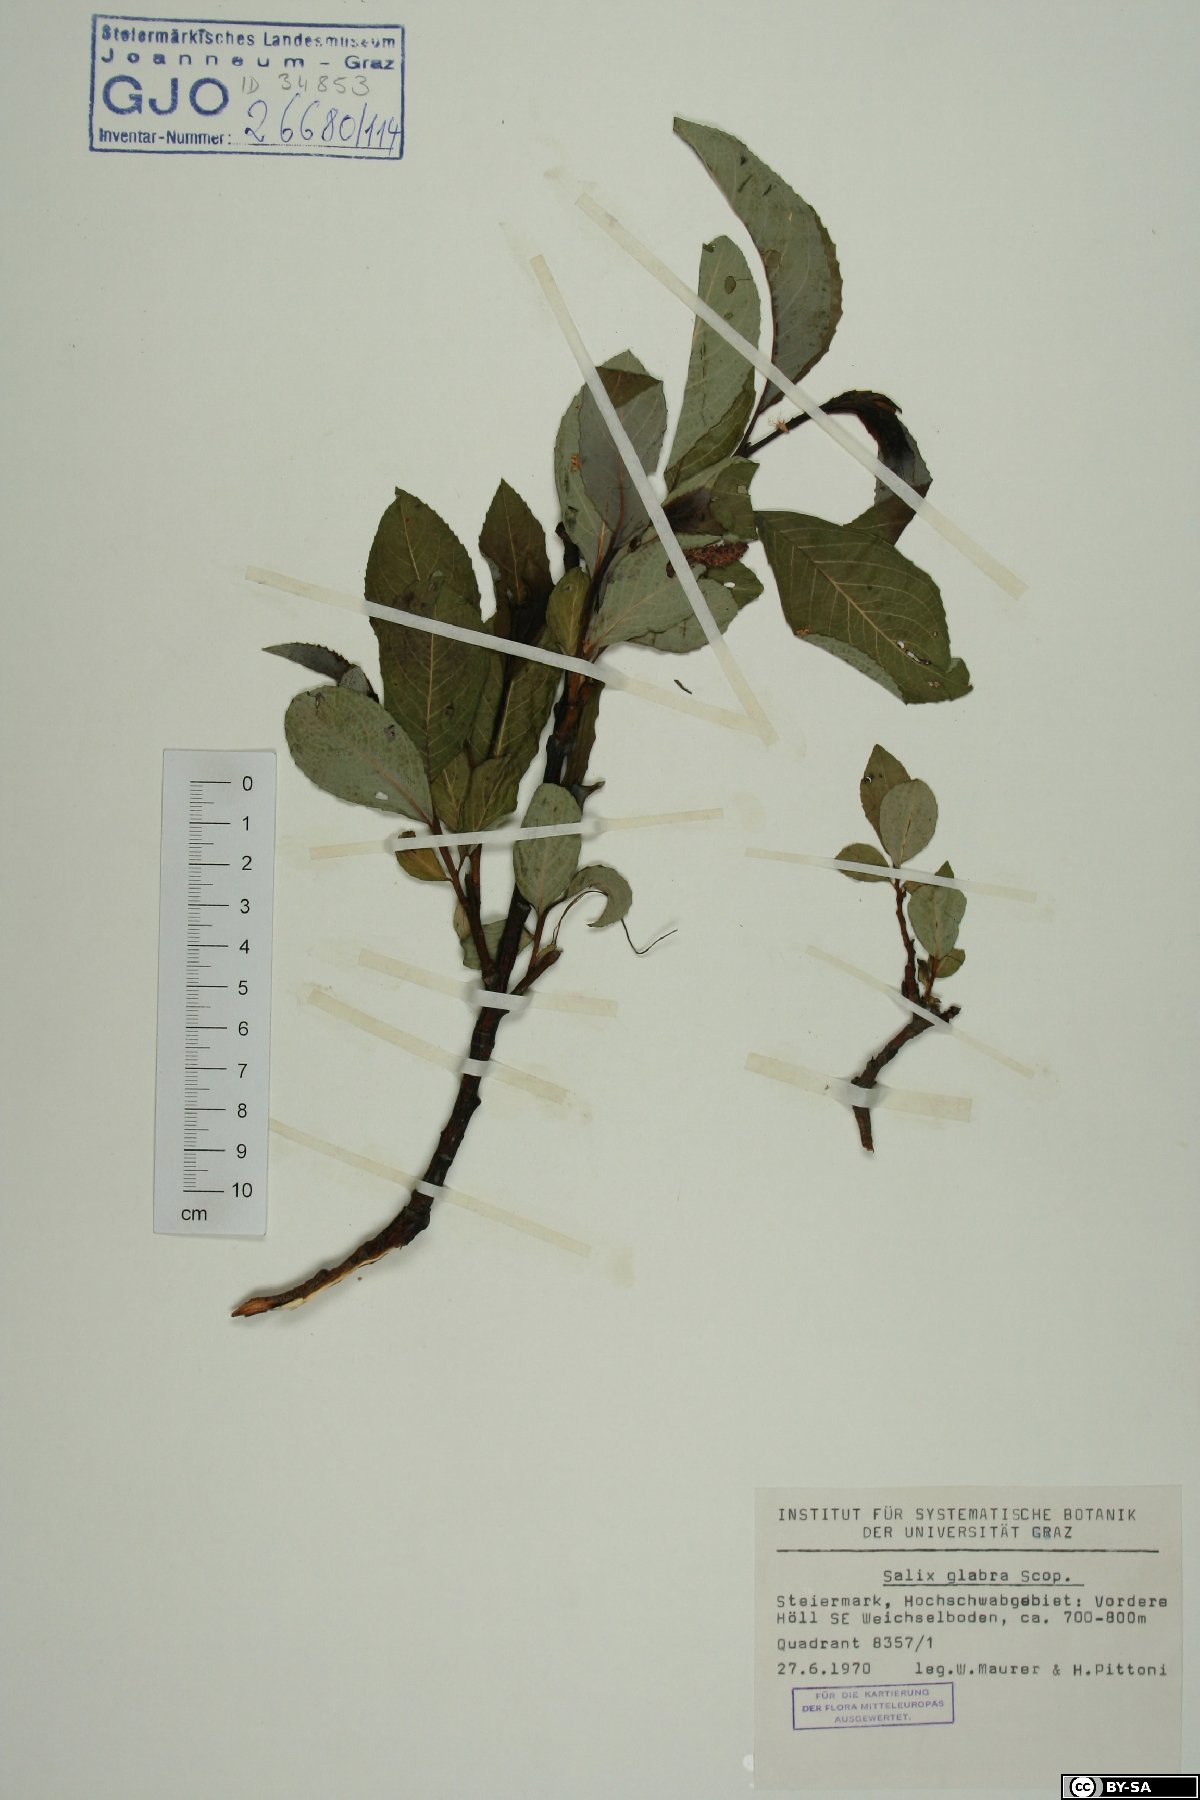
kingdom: Plantae
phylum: Tracheophyta
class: Magnoliopsida
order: Malpighiales
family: Salicaceae
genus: Salix
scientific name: Salix glabra
